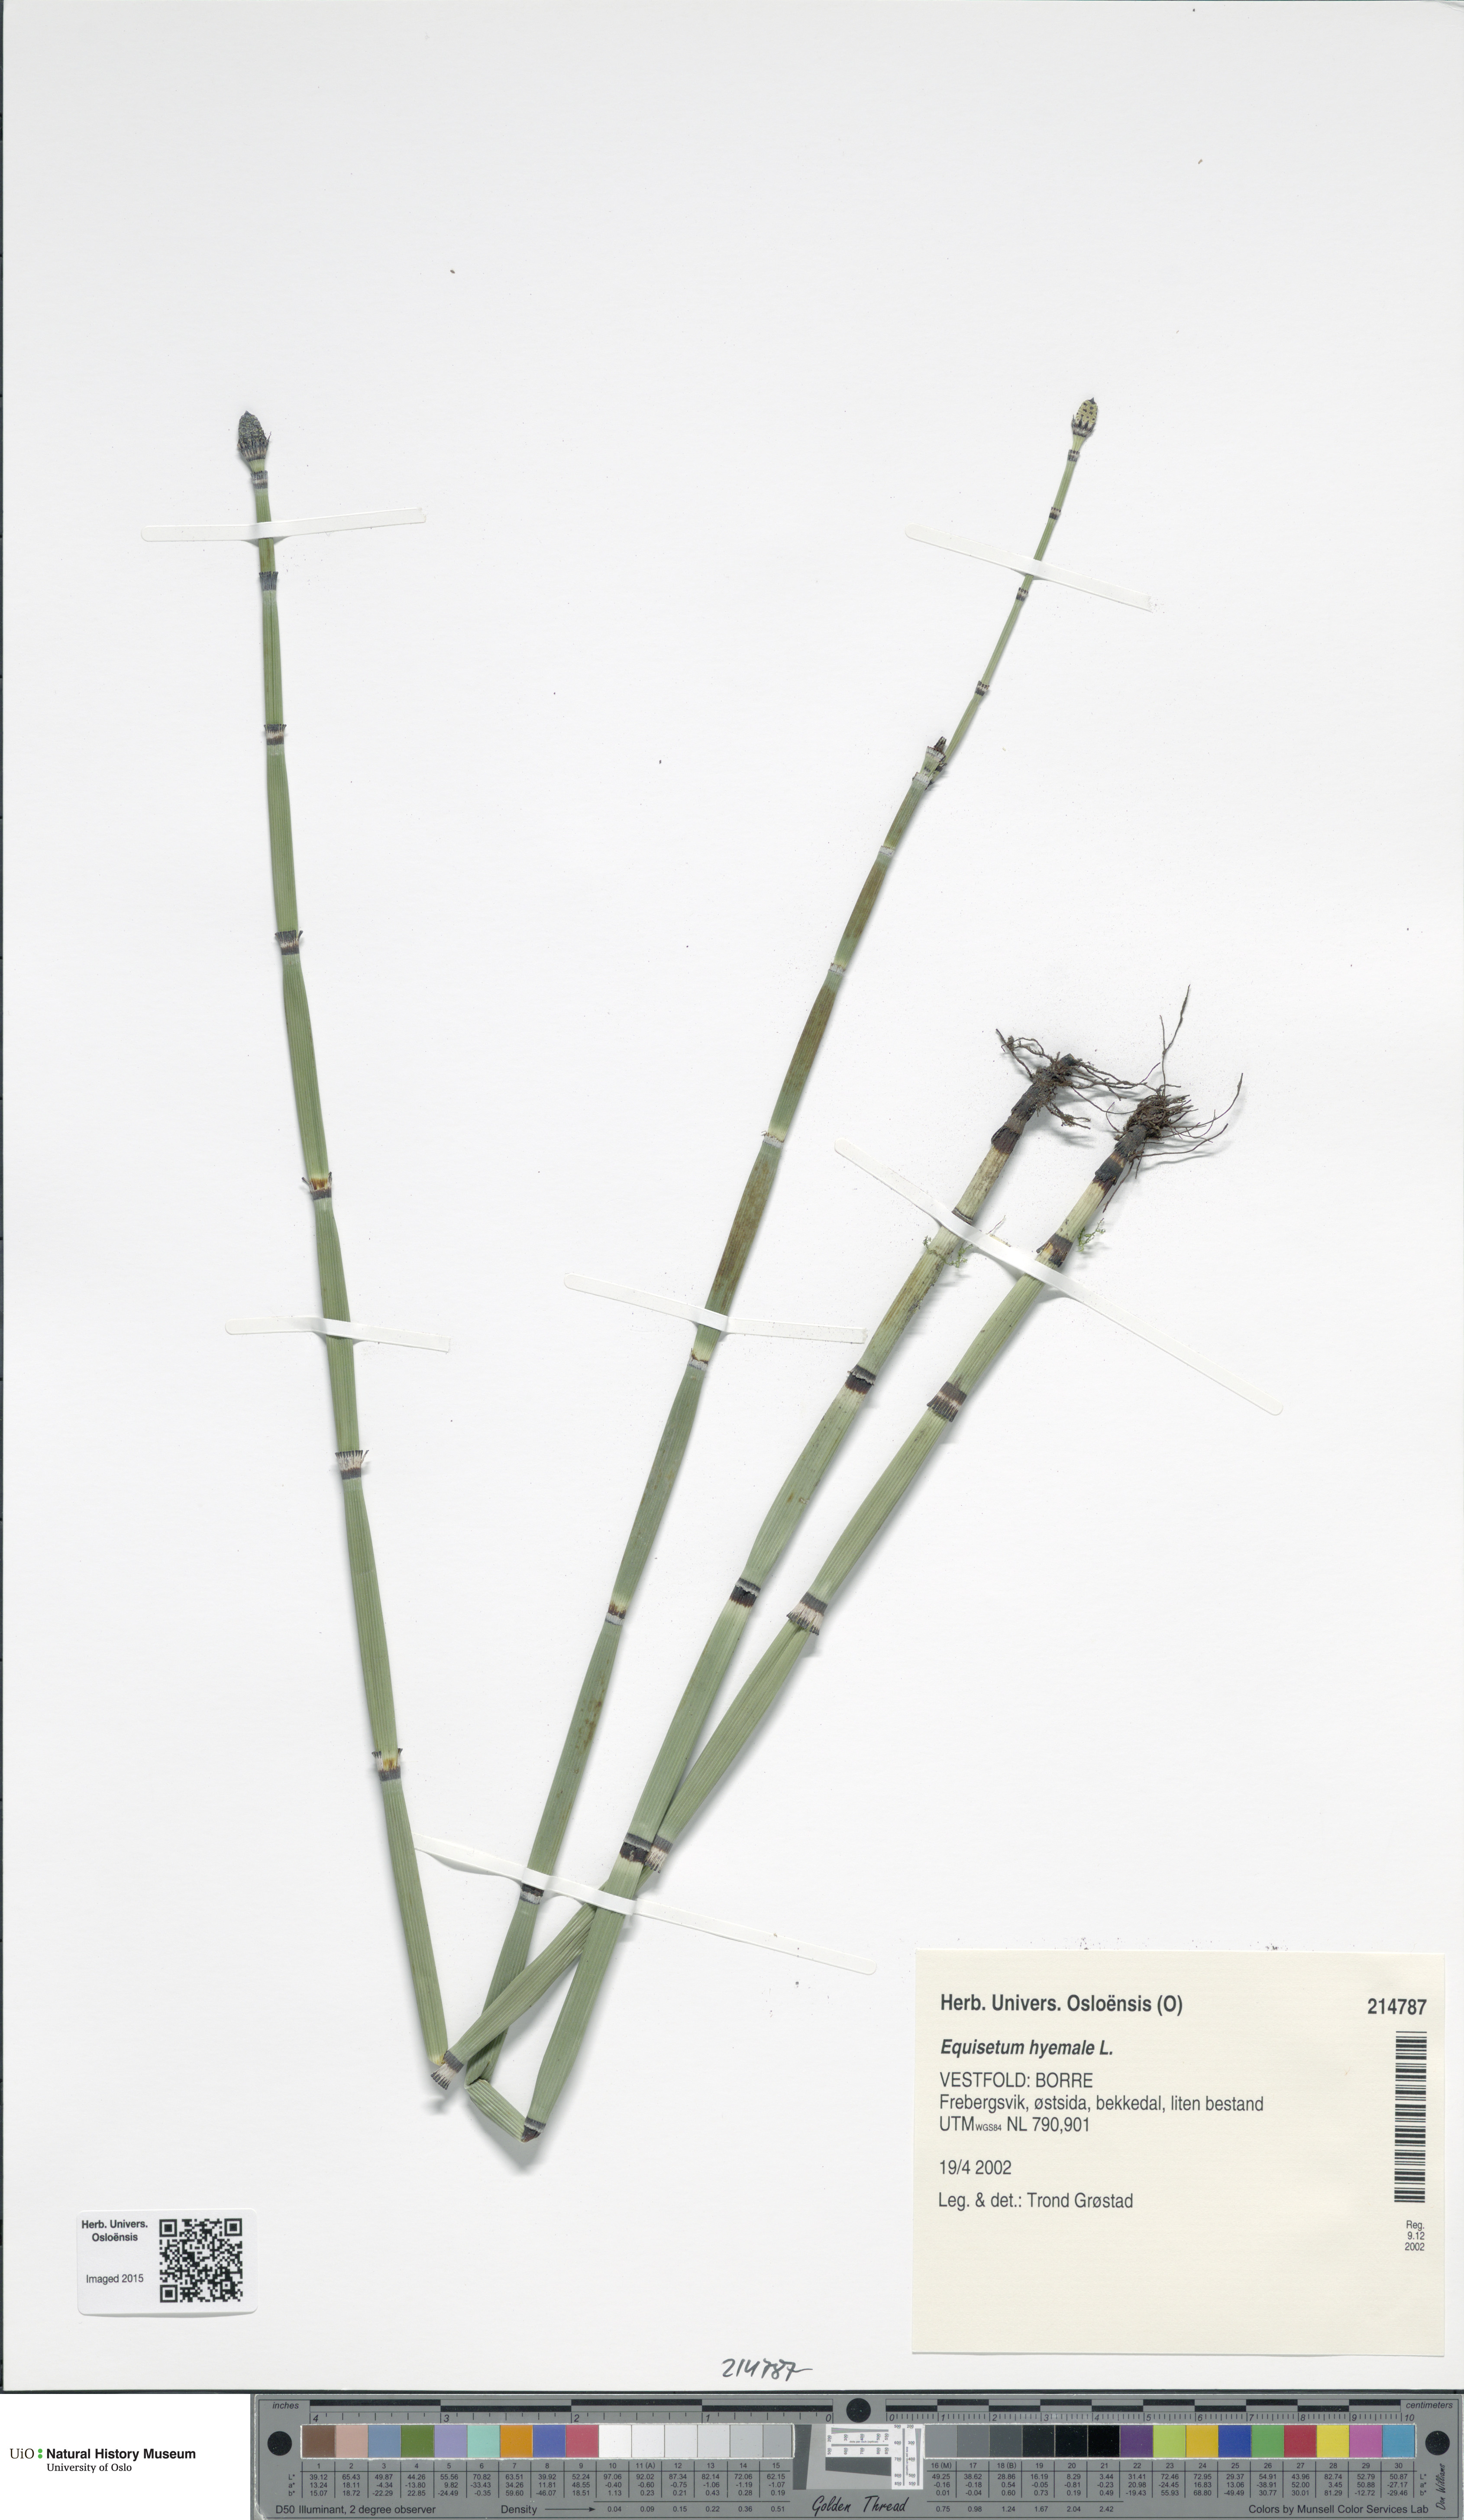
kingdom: Plantae
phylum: Tracheophyta
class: Polypodiopsida
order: Equisetales
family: Equisetaceae
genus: Equisetum
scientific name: Equisetum hyemale
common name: Rough horsetail
